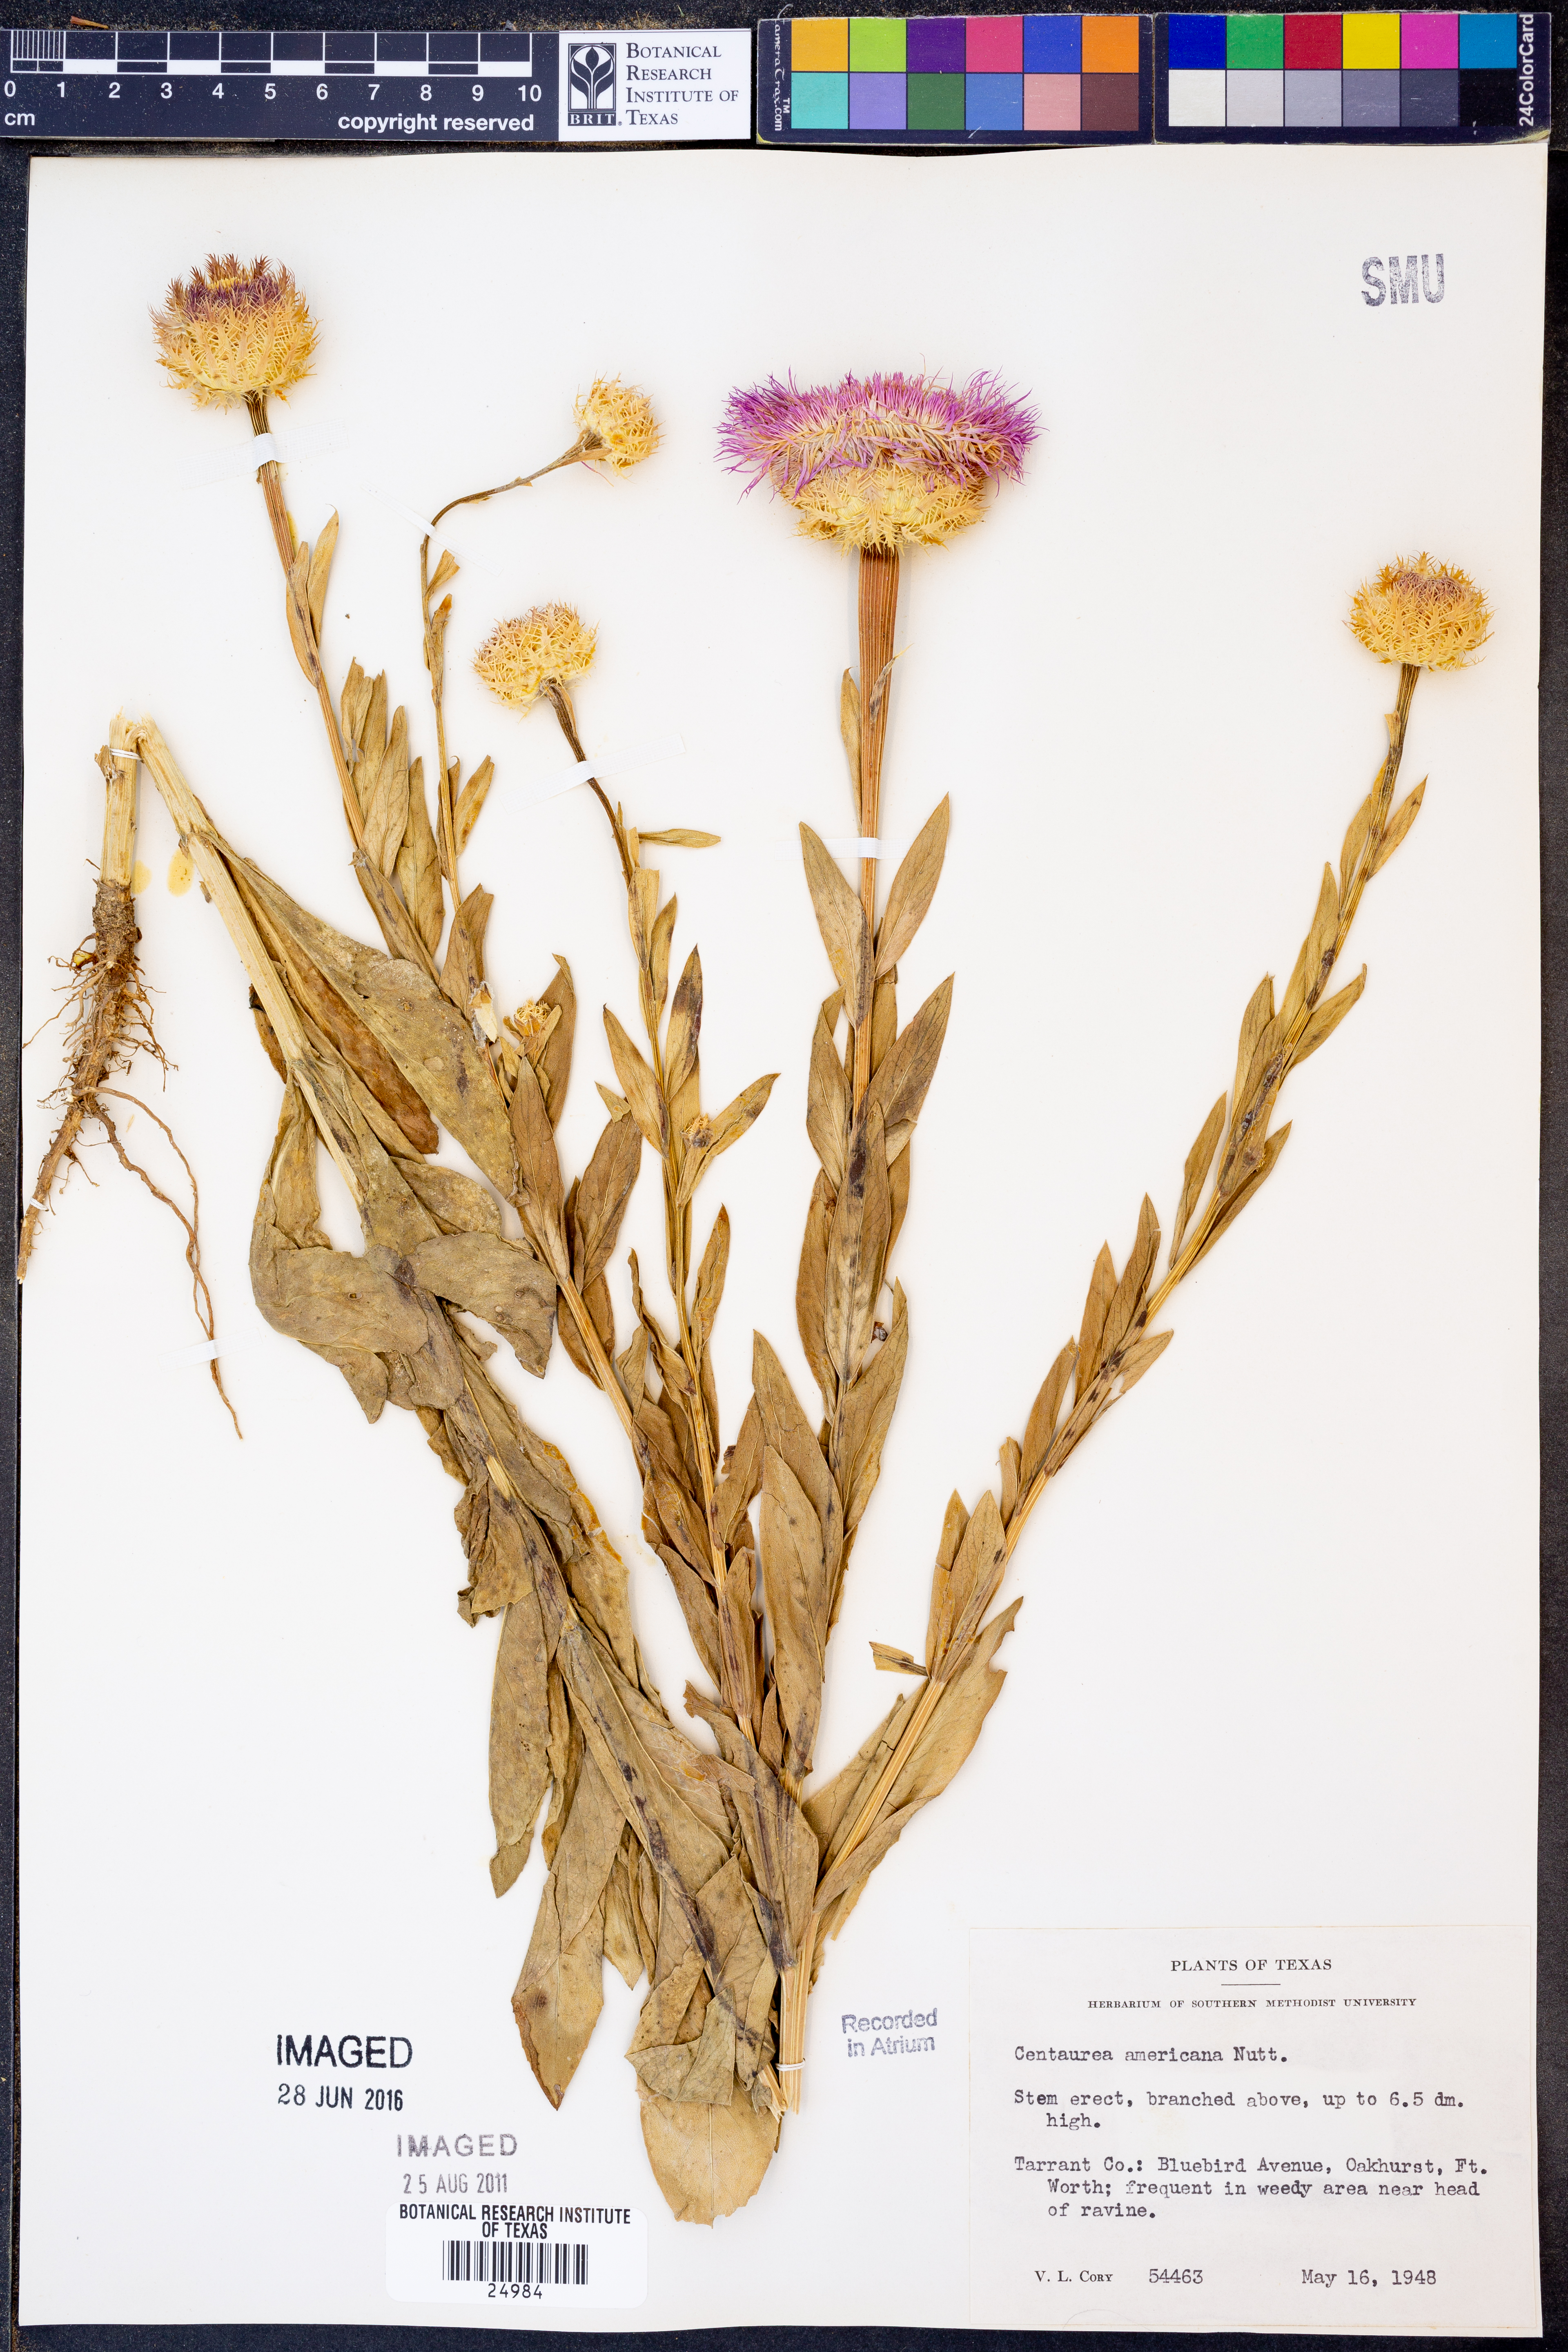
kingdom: Plantae
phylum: Tracheophyta
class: Magnoliopsida
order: Asterales
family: Asteraceae
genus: Plectocephalus
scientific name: Plectocephalus americanus
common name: American basket-flower
